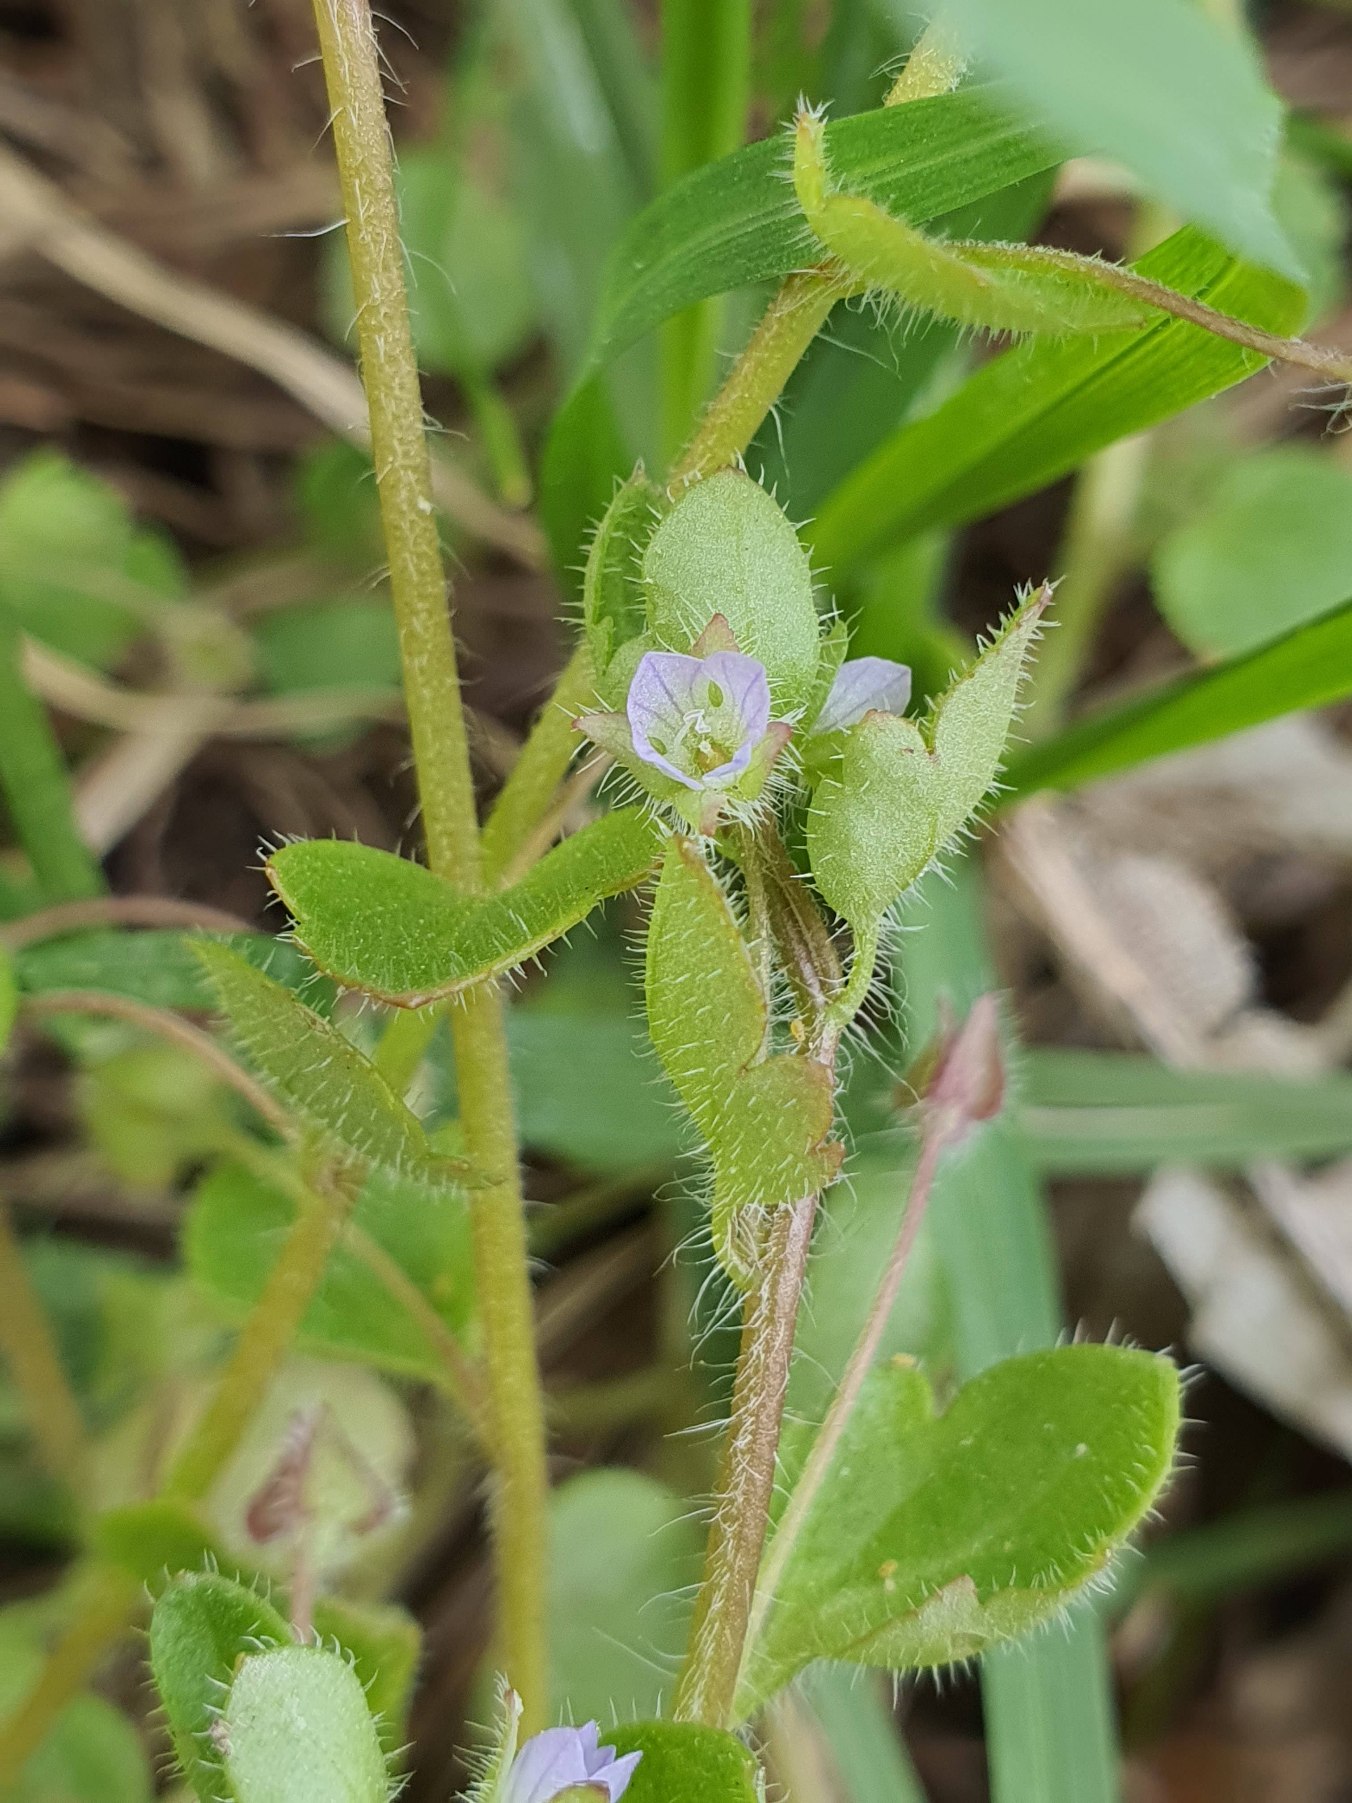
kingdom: Plantae
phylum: Tracheophyta
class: Magnoliopsida
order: Lamiales
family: Plantaginaceae
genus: Veronica
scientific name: Veronica sublobata
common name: Krat-ærenpris
